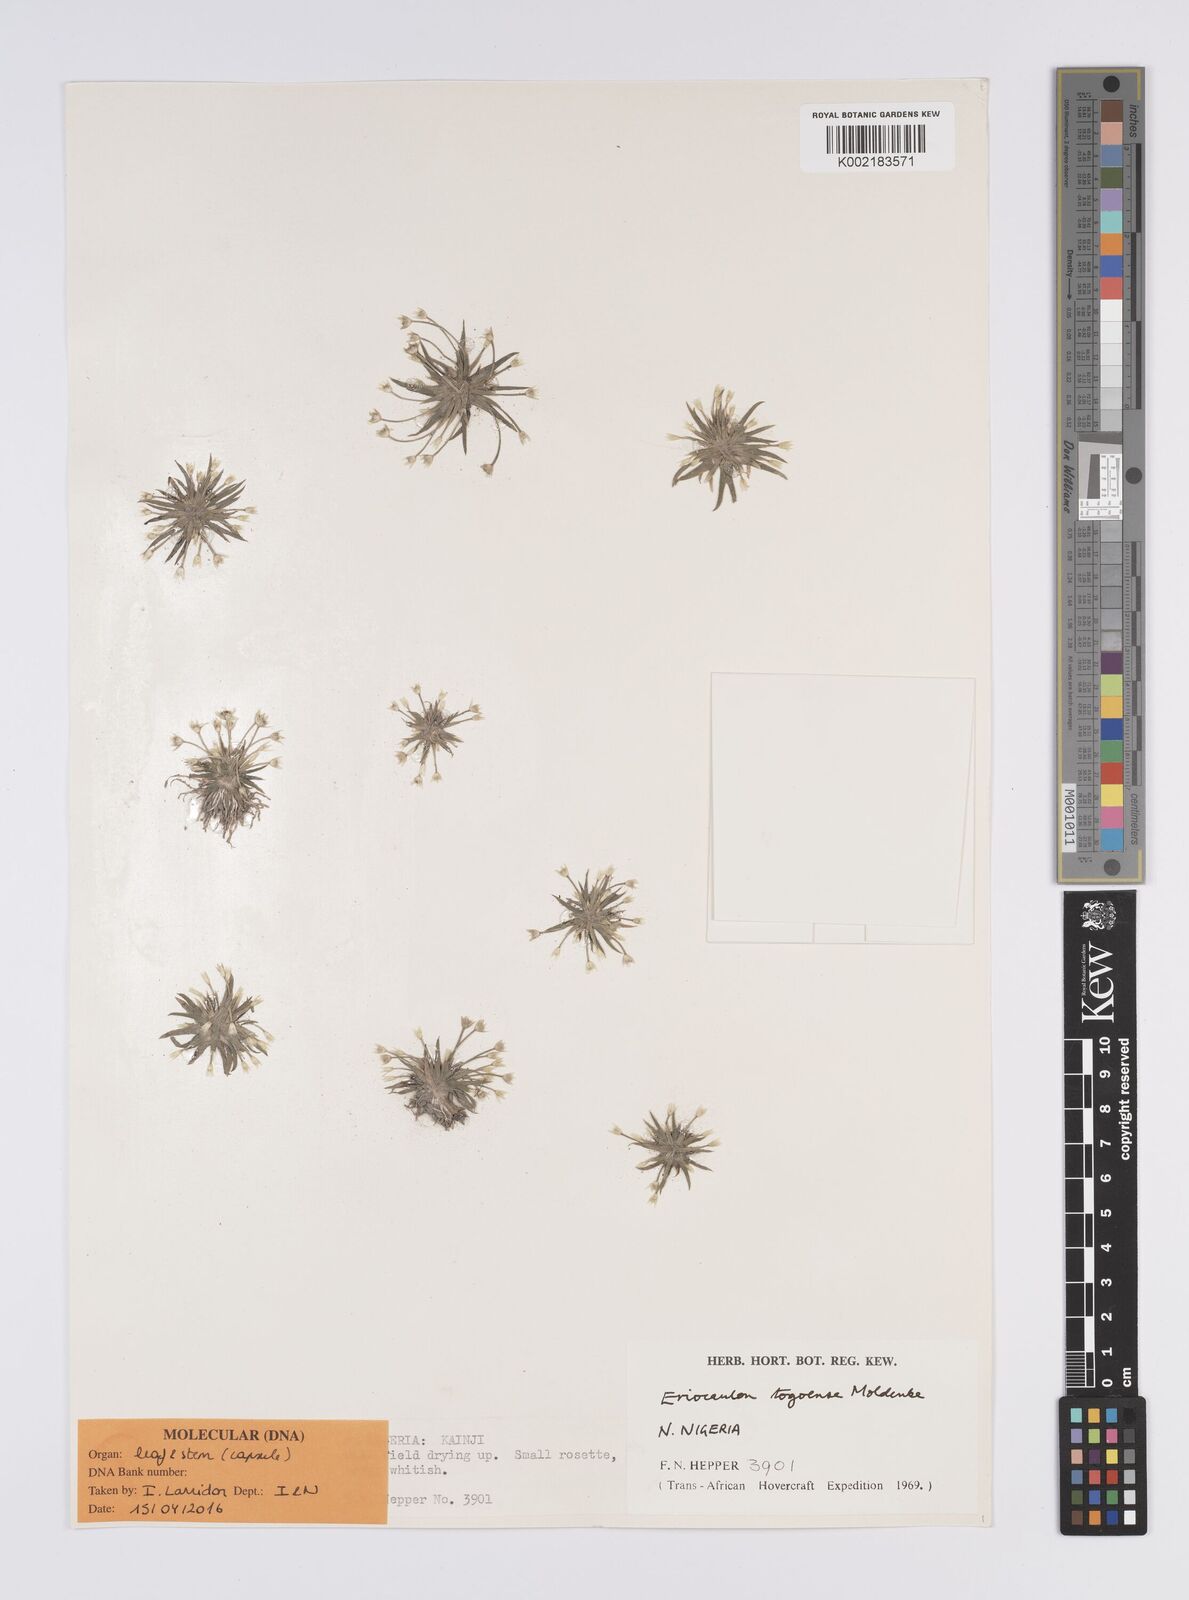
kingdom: Plantae
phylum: Tracheophyta
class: Liliopsida
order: Poales
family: Eriocaulaceae
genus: Eriocaulon
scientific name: Eriocaulon togoense
